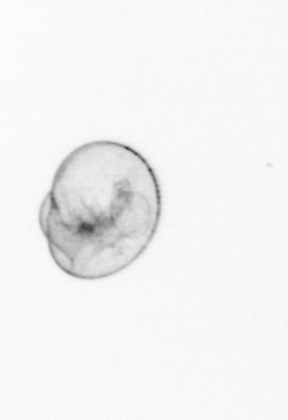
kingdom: Chromista
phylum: Myzozoa
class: Dinophyceae
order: Noctilucales
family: Noctilucaceae
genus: Noctiluca
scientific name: Noctiluca scintillans
